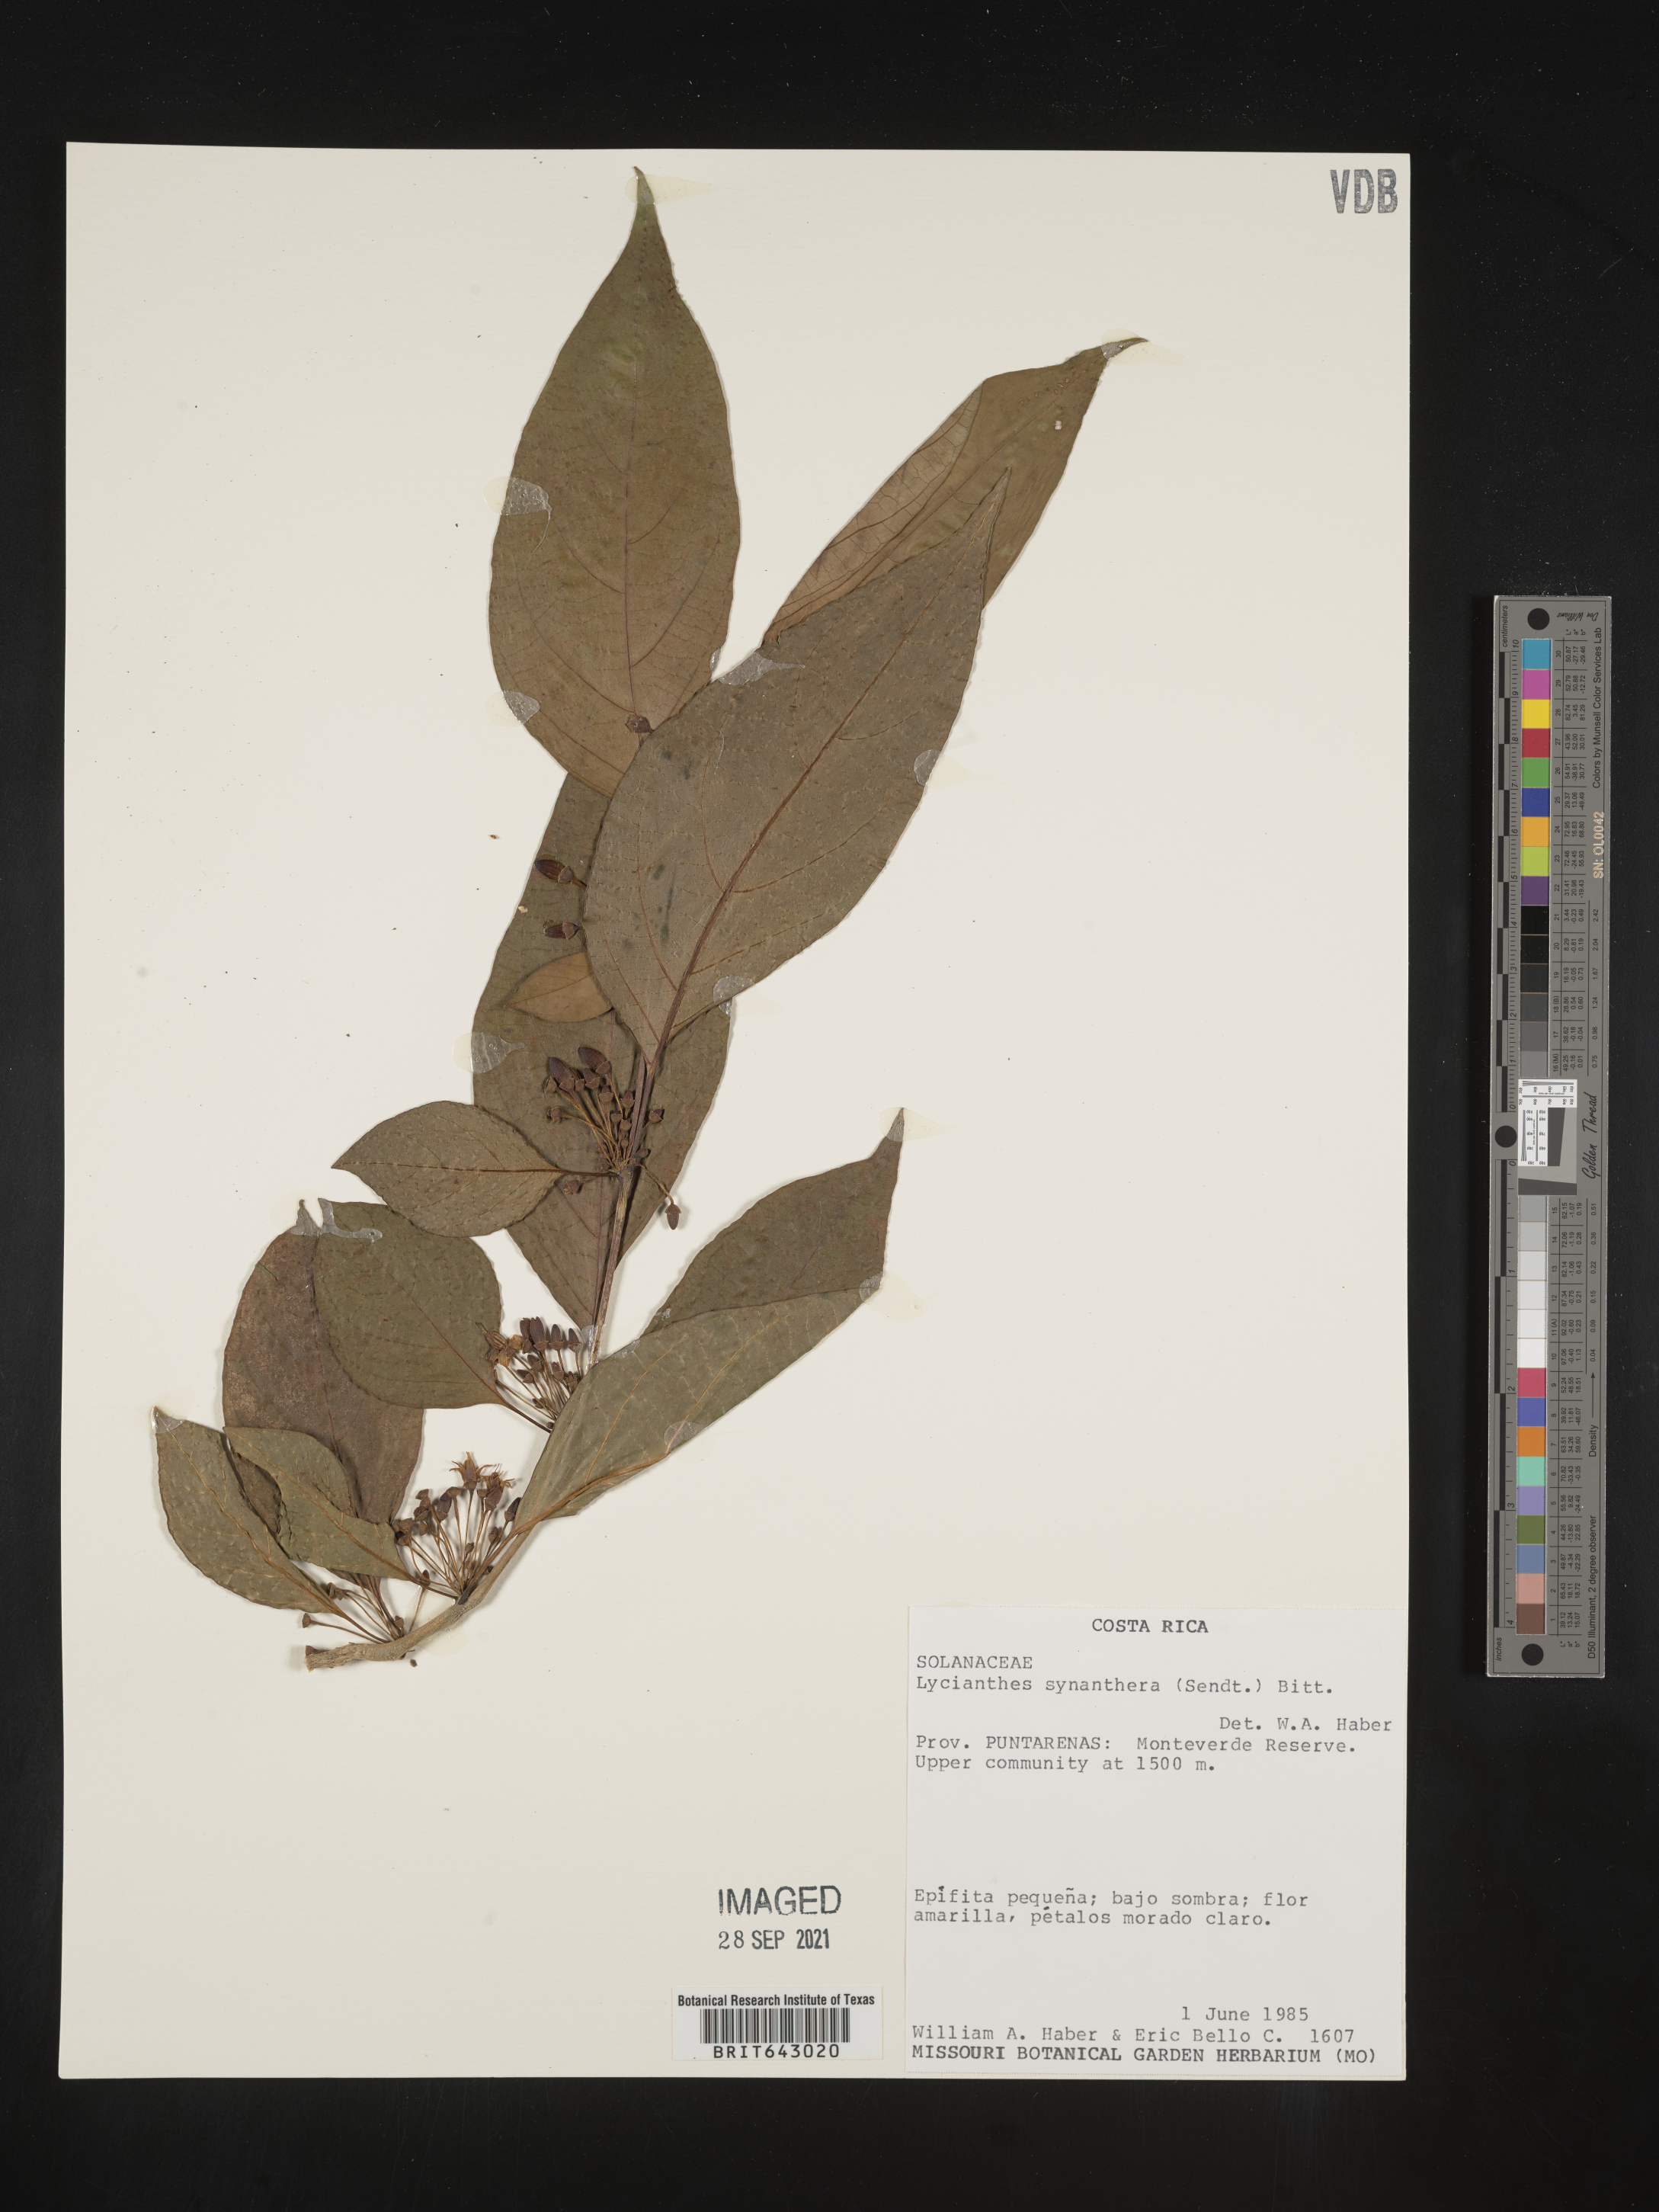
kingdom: Plantae
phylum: Tracheophyta
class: Magnoliopsida
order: Solanales
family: Solanaceae
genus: Lycianthes
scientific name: Lycianthes
